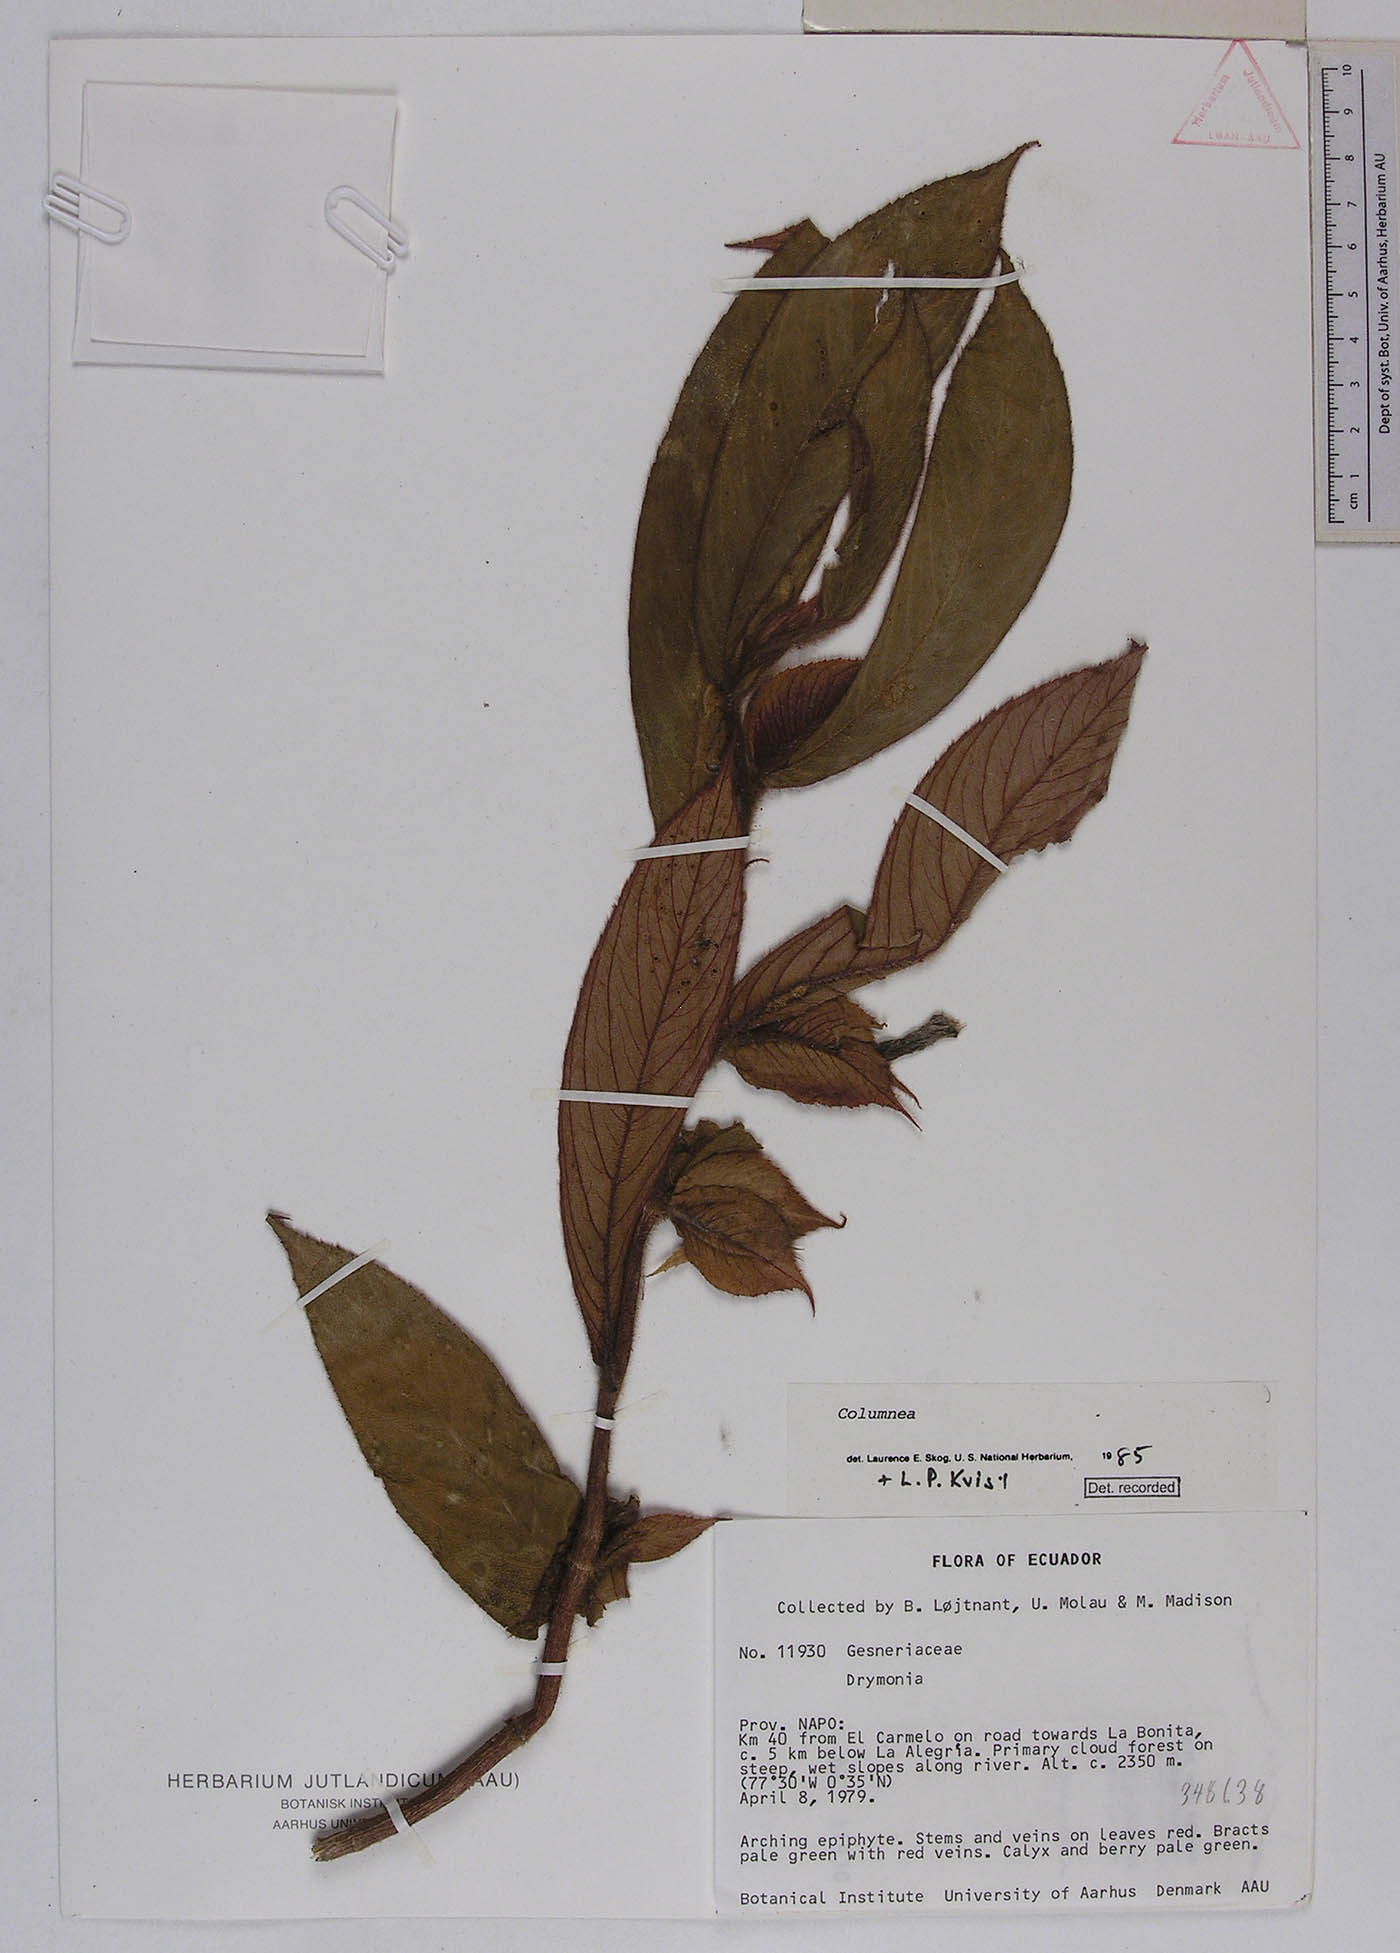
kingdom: Plantae
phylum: Tracheophyta
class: Magnoliopsida
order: Lamiales
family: Gesneriaceae
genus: Columnea
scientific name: Columnea
